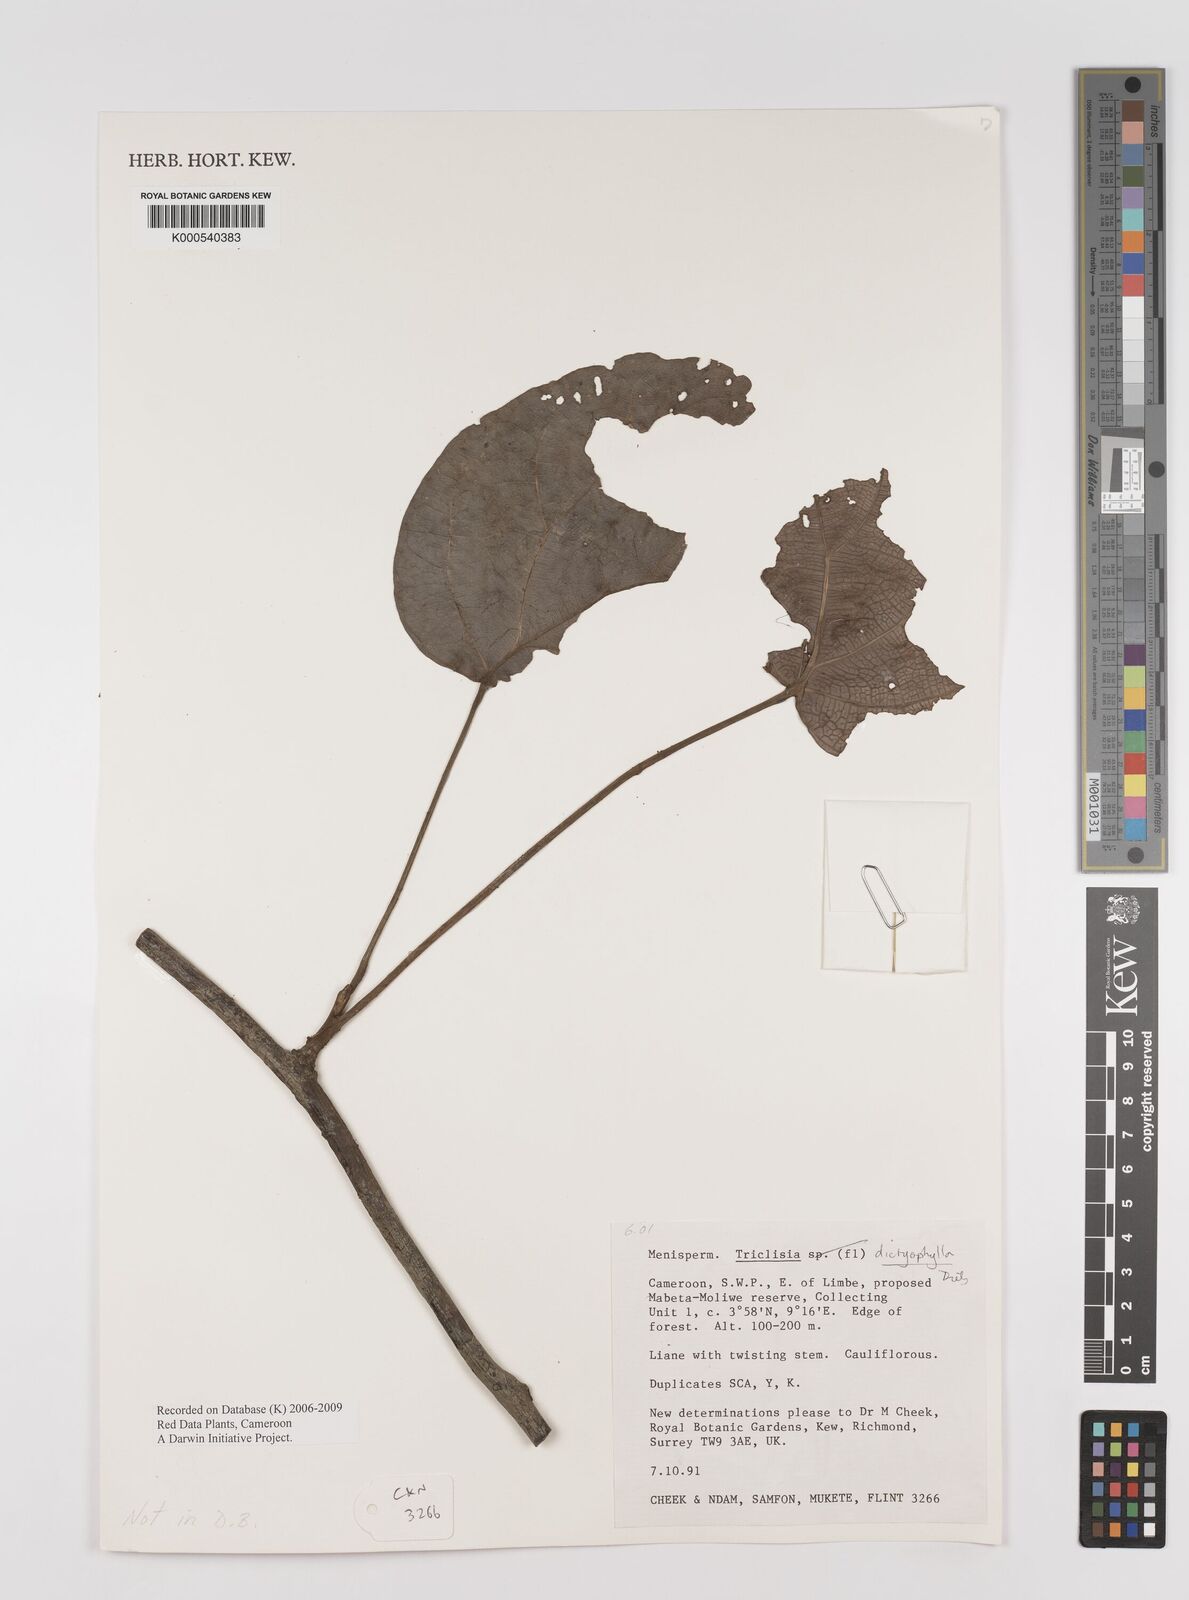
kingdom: Plantae
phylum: Tracheophyta
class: Magnoliopsida
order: Ranunculales
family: Menispermaceae
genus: Triclisia
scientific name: Triclisia dictyophylla
